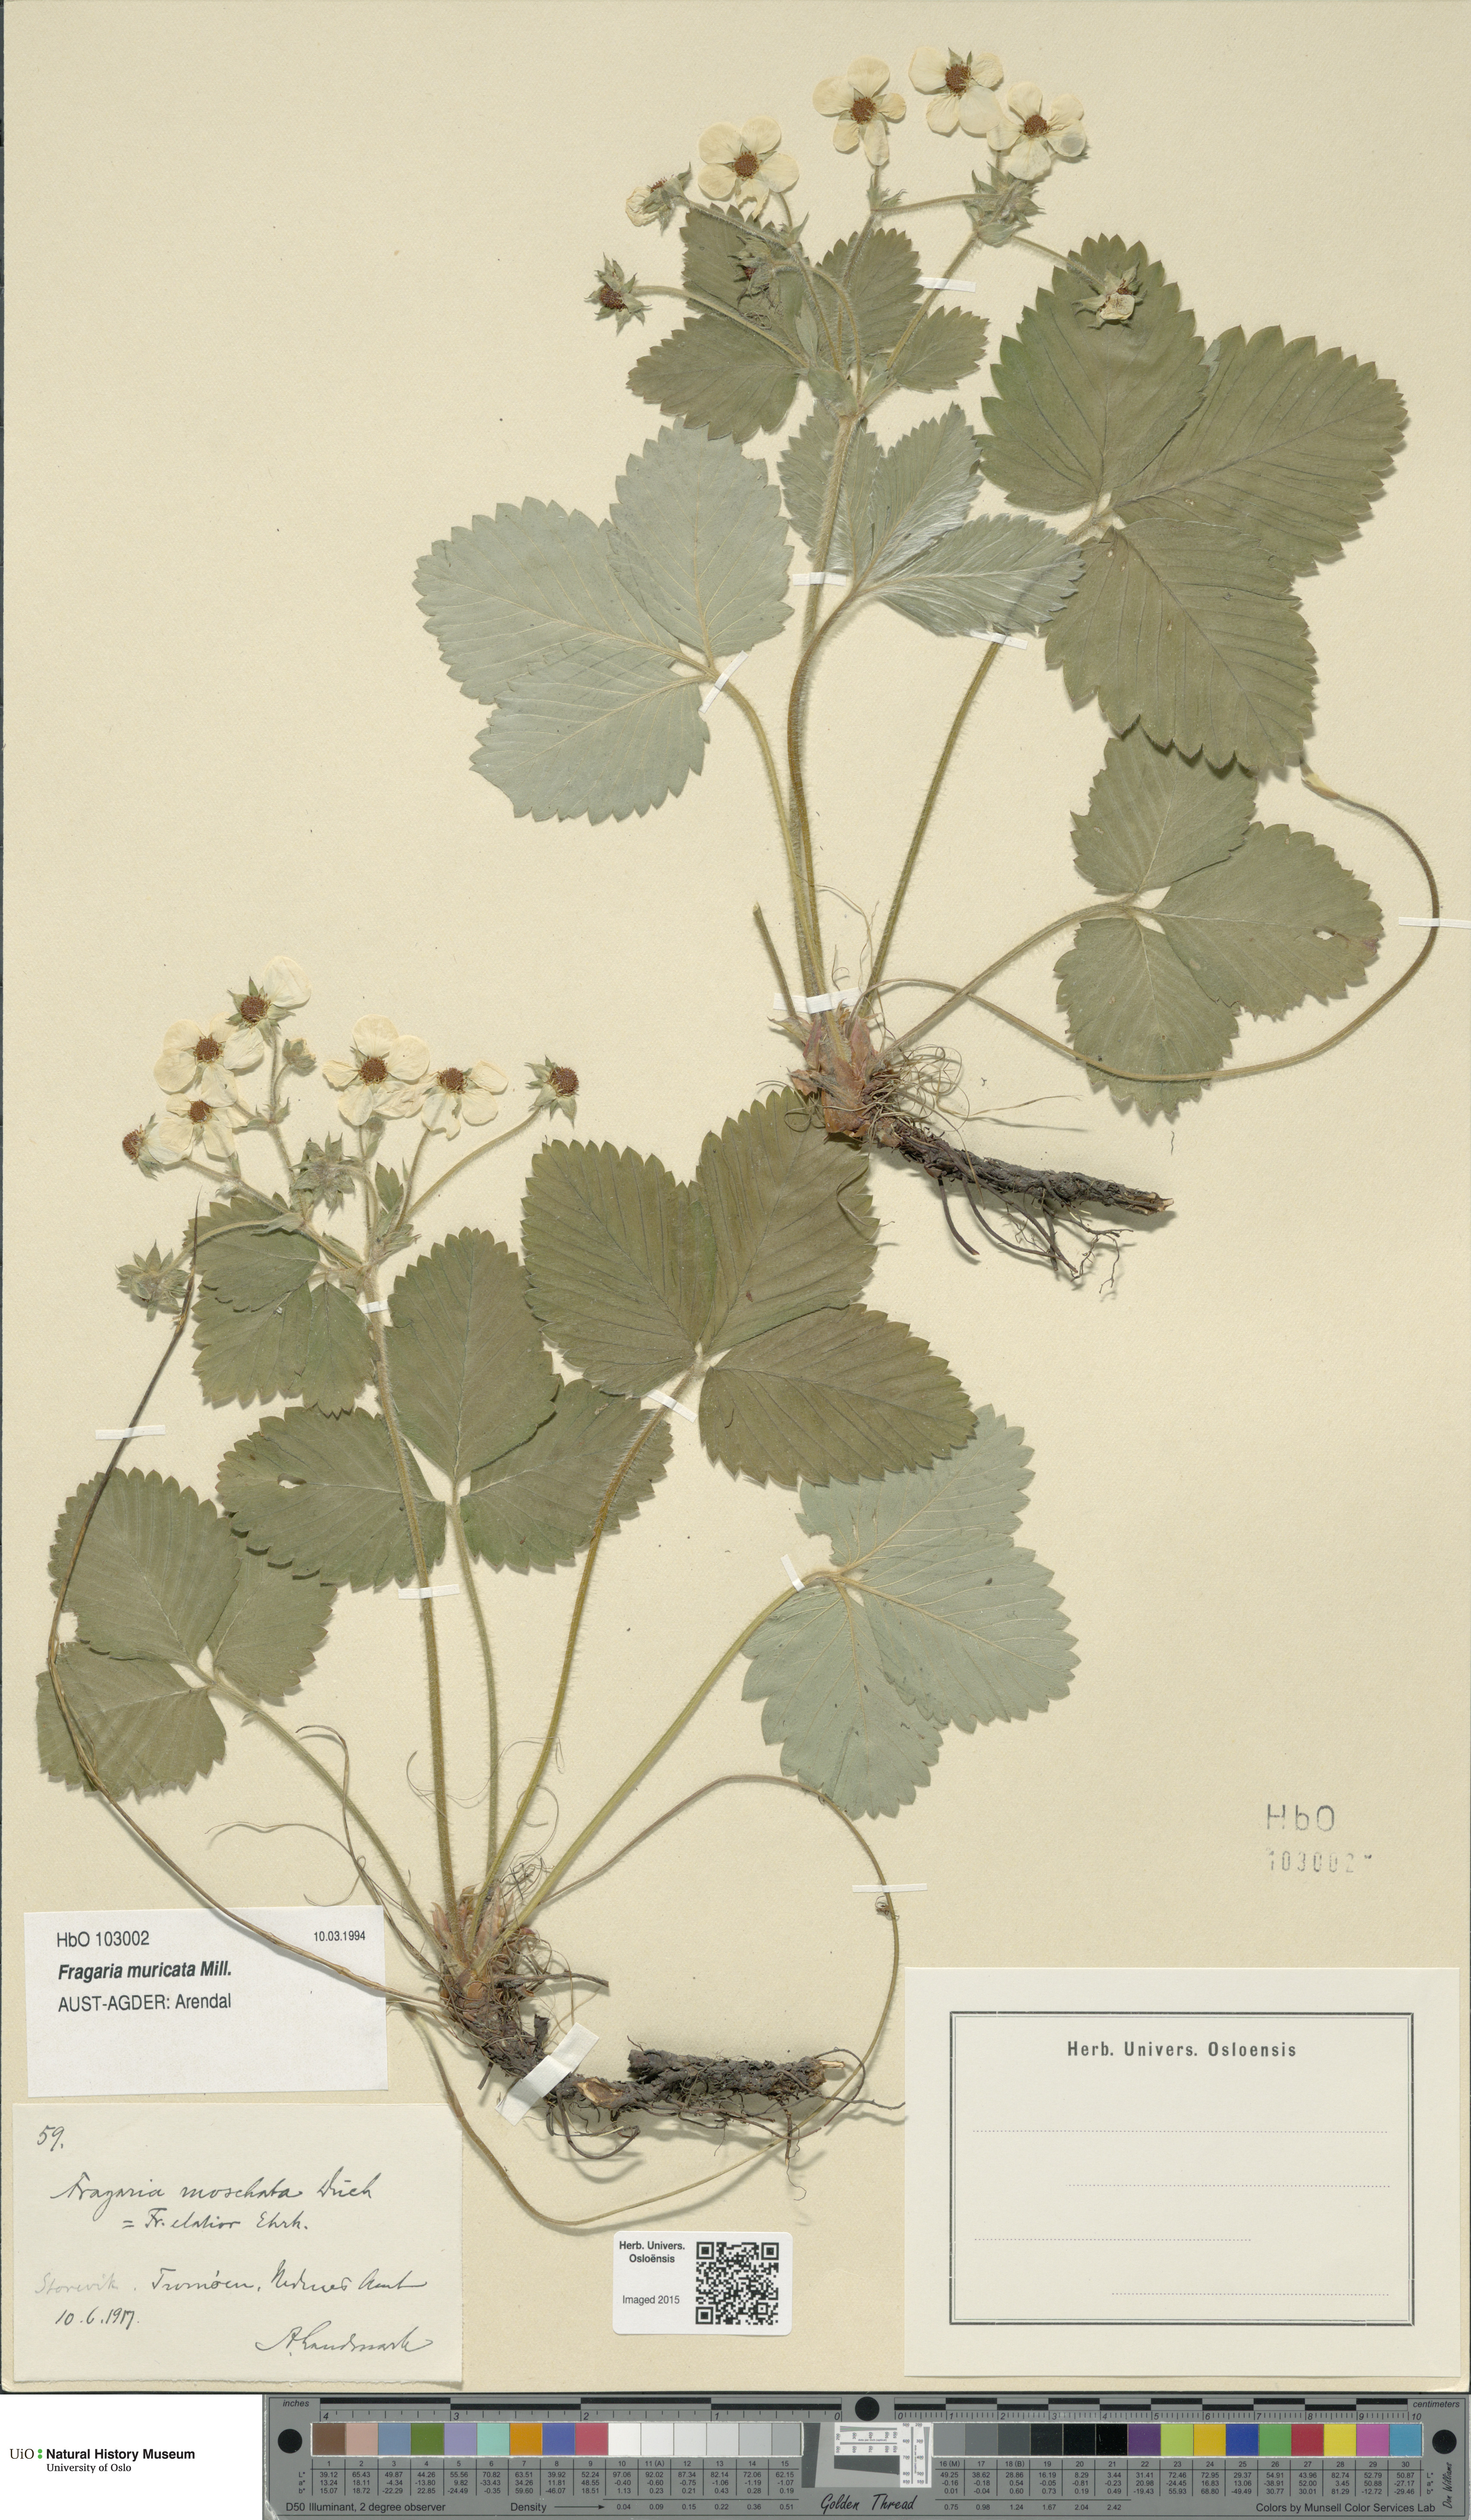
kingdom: Plantae
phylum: Tracheophyta
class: Magnoliopsida
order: Rosales
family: Rosaceae
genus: Fragaria
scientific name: Fragaria moschata
